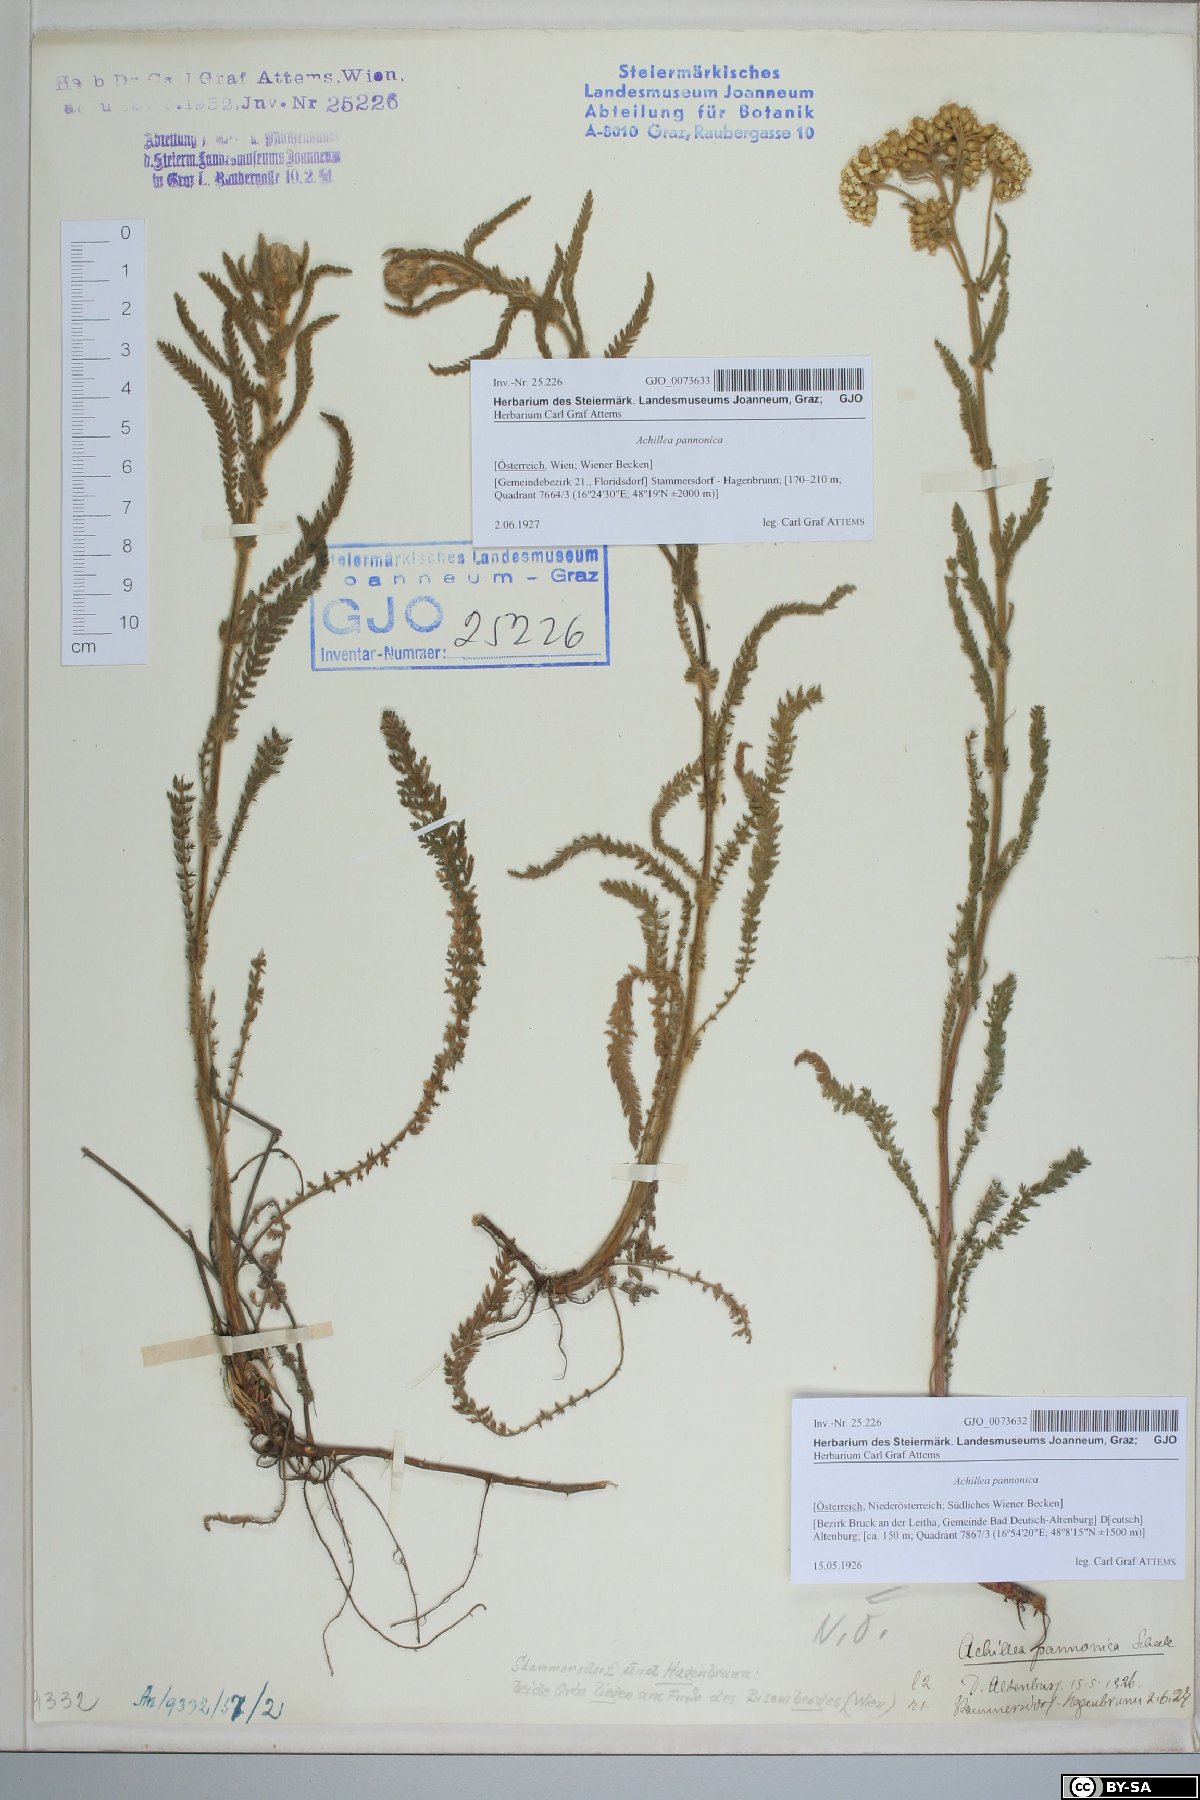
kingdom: Plantae
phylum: Tracheophyta
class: Magnoliopsida
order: Asterales
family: Asteraceae
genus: Achillea
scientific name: Achillea pannonica
